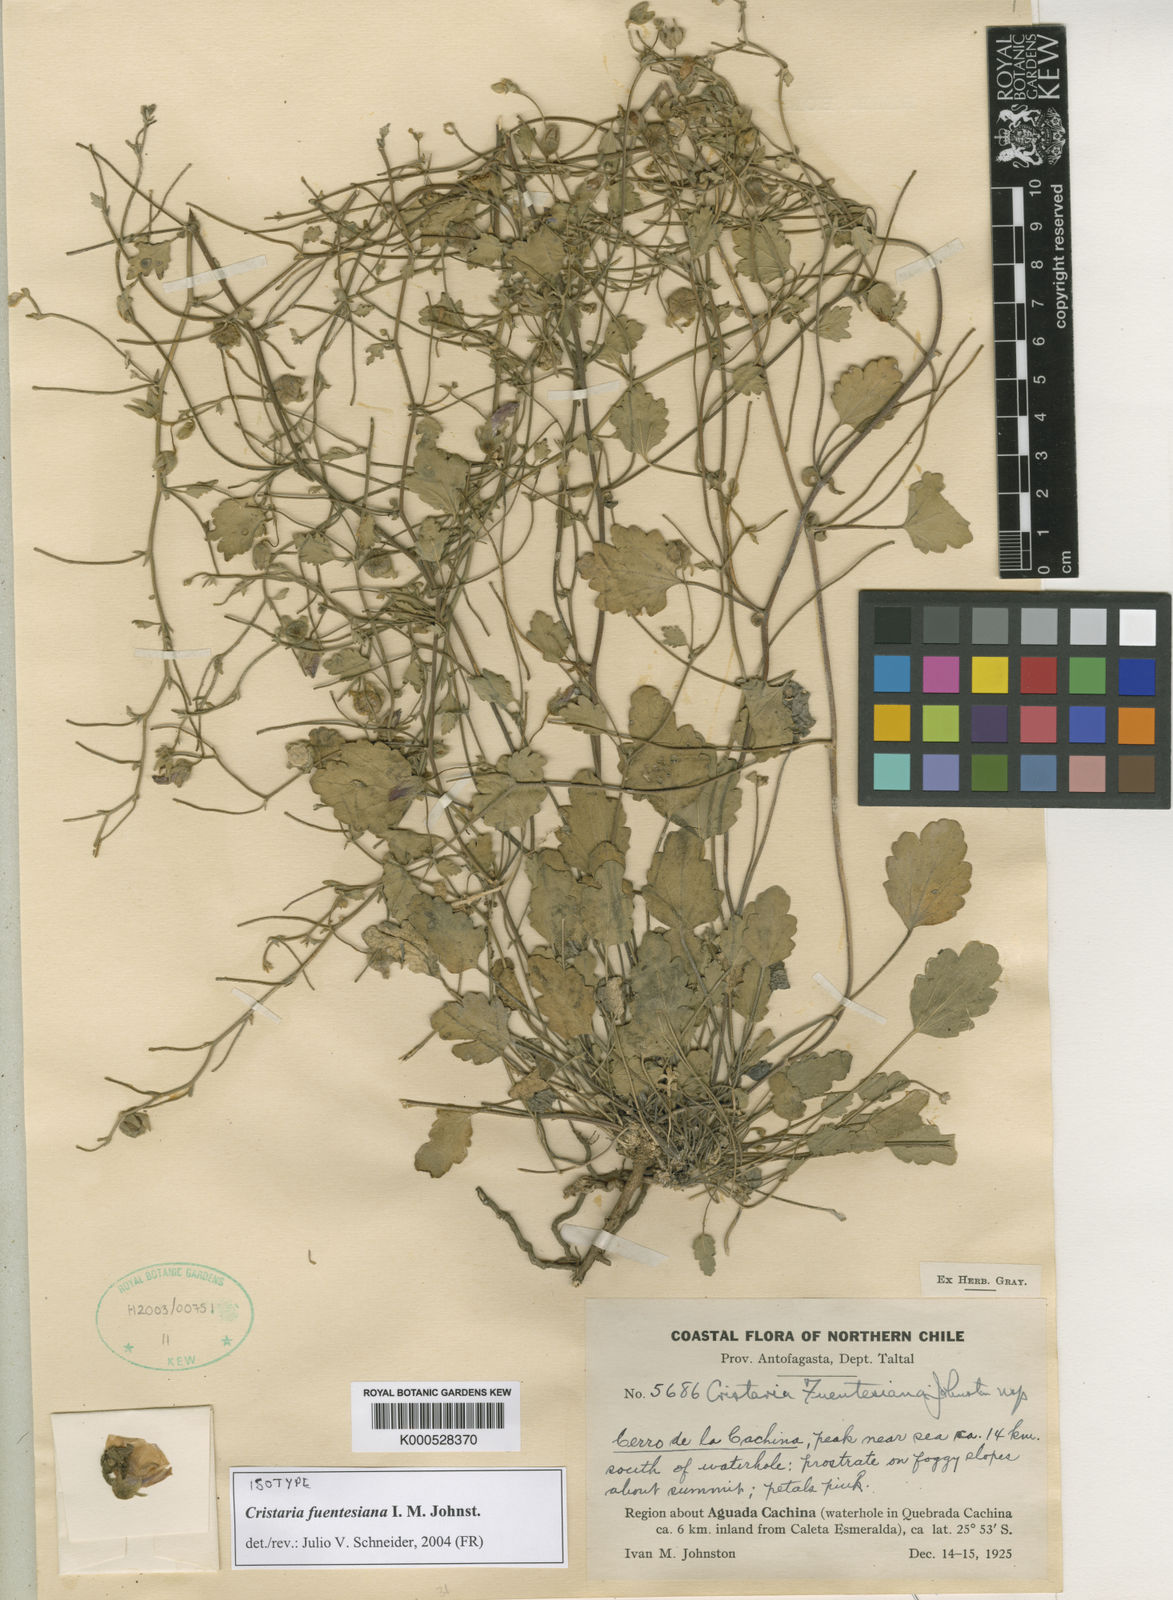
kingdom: Plantae
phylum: Tracheophyta
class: Magnoliopsida
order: Malvales
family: Malvaceae
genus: Cristaria
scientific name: Cristaria fuentesiana
